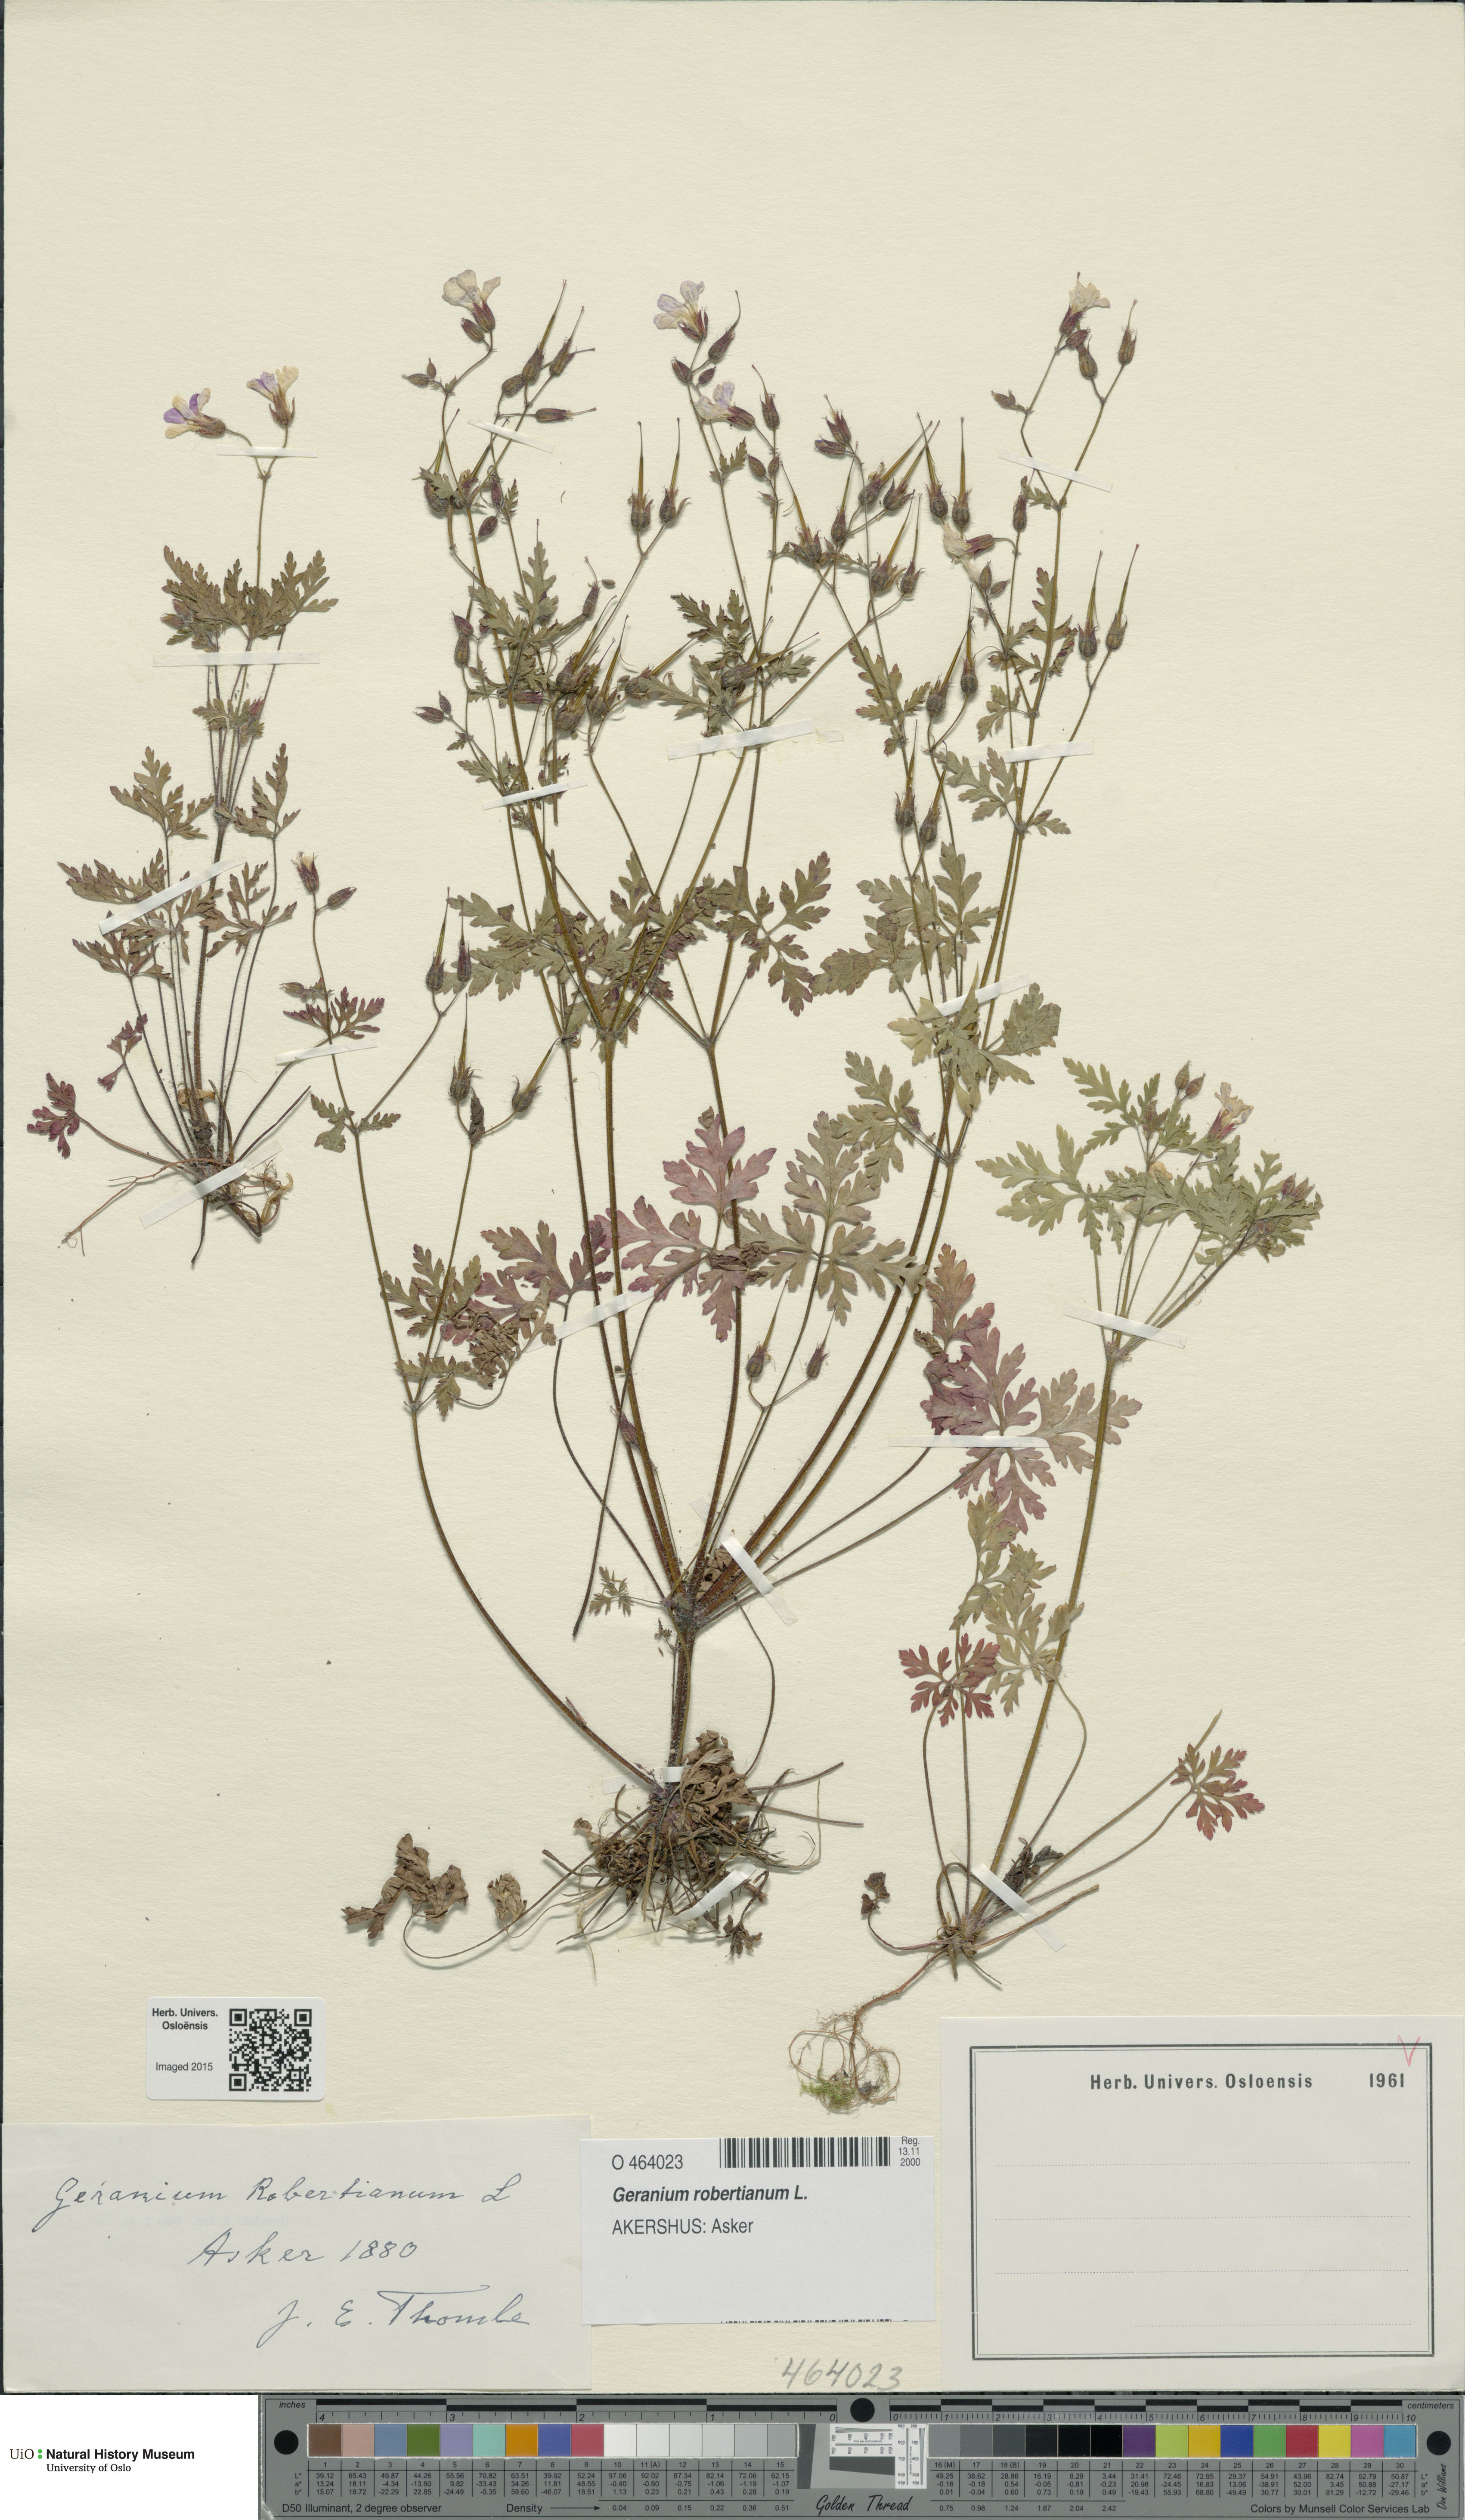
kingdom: Plantae
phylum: Tracheophyta
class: Magnoliopsida
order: Geraniales
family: Geraniaceae
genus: Geranium
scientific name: Geranium robertianum
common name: Herb-robert
